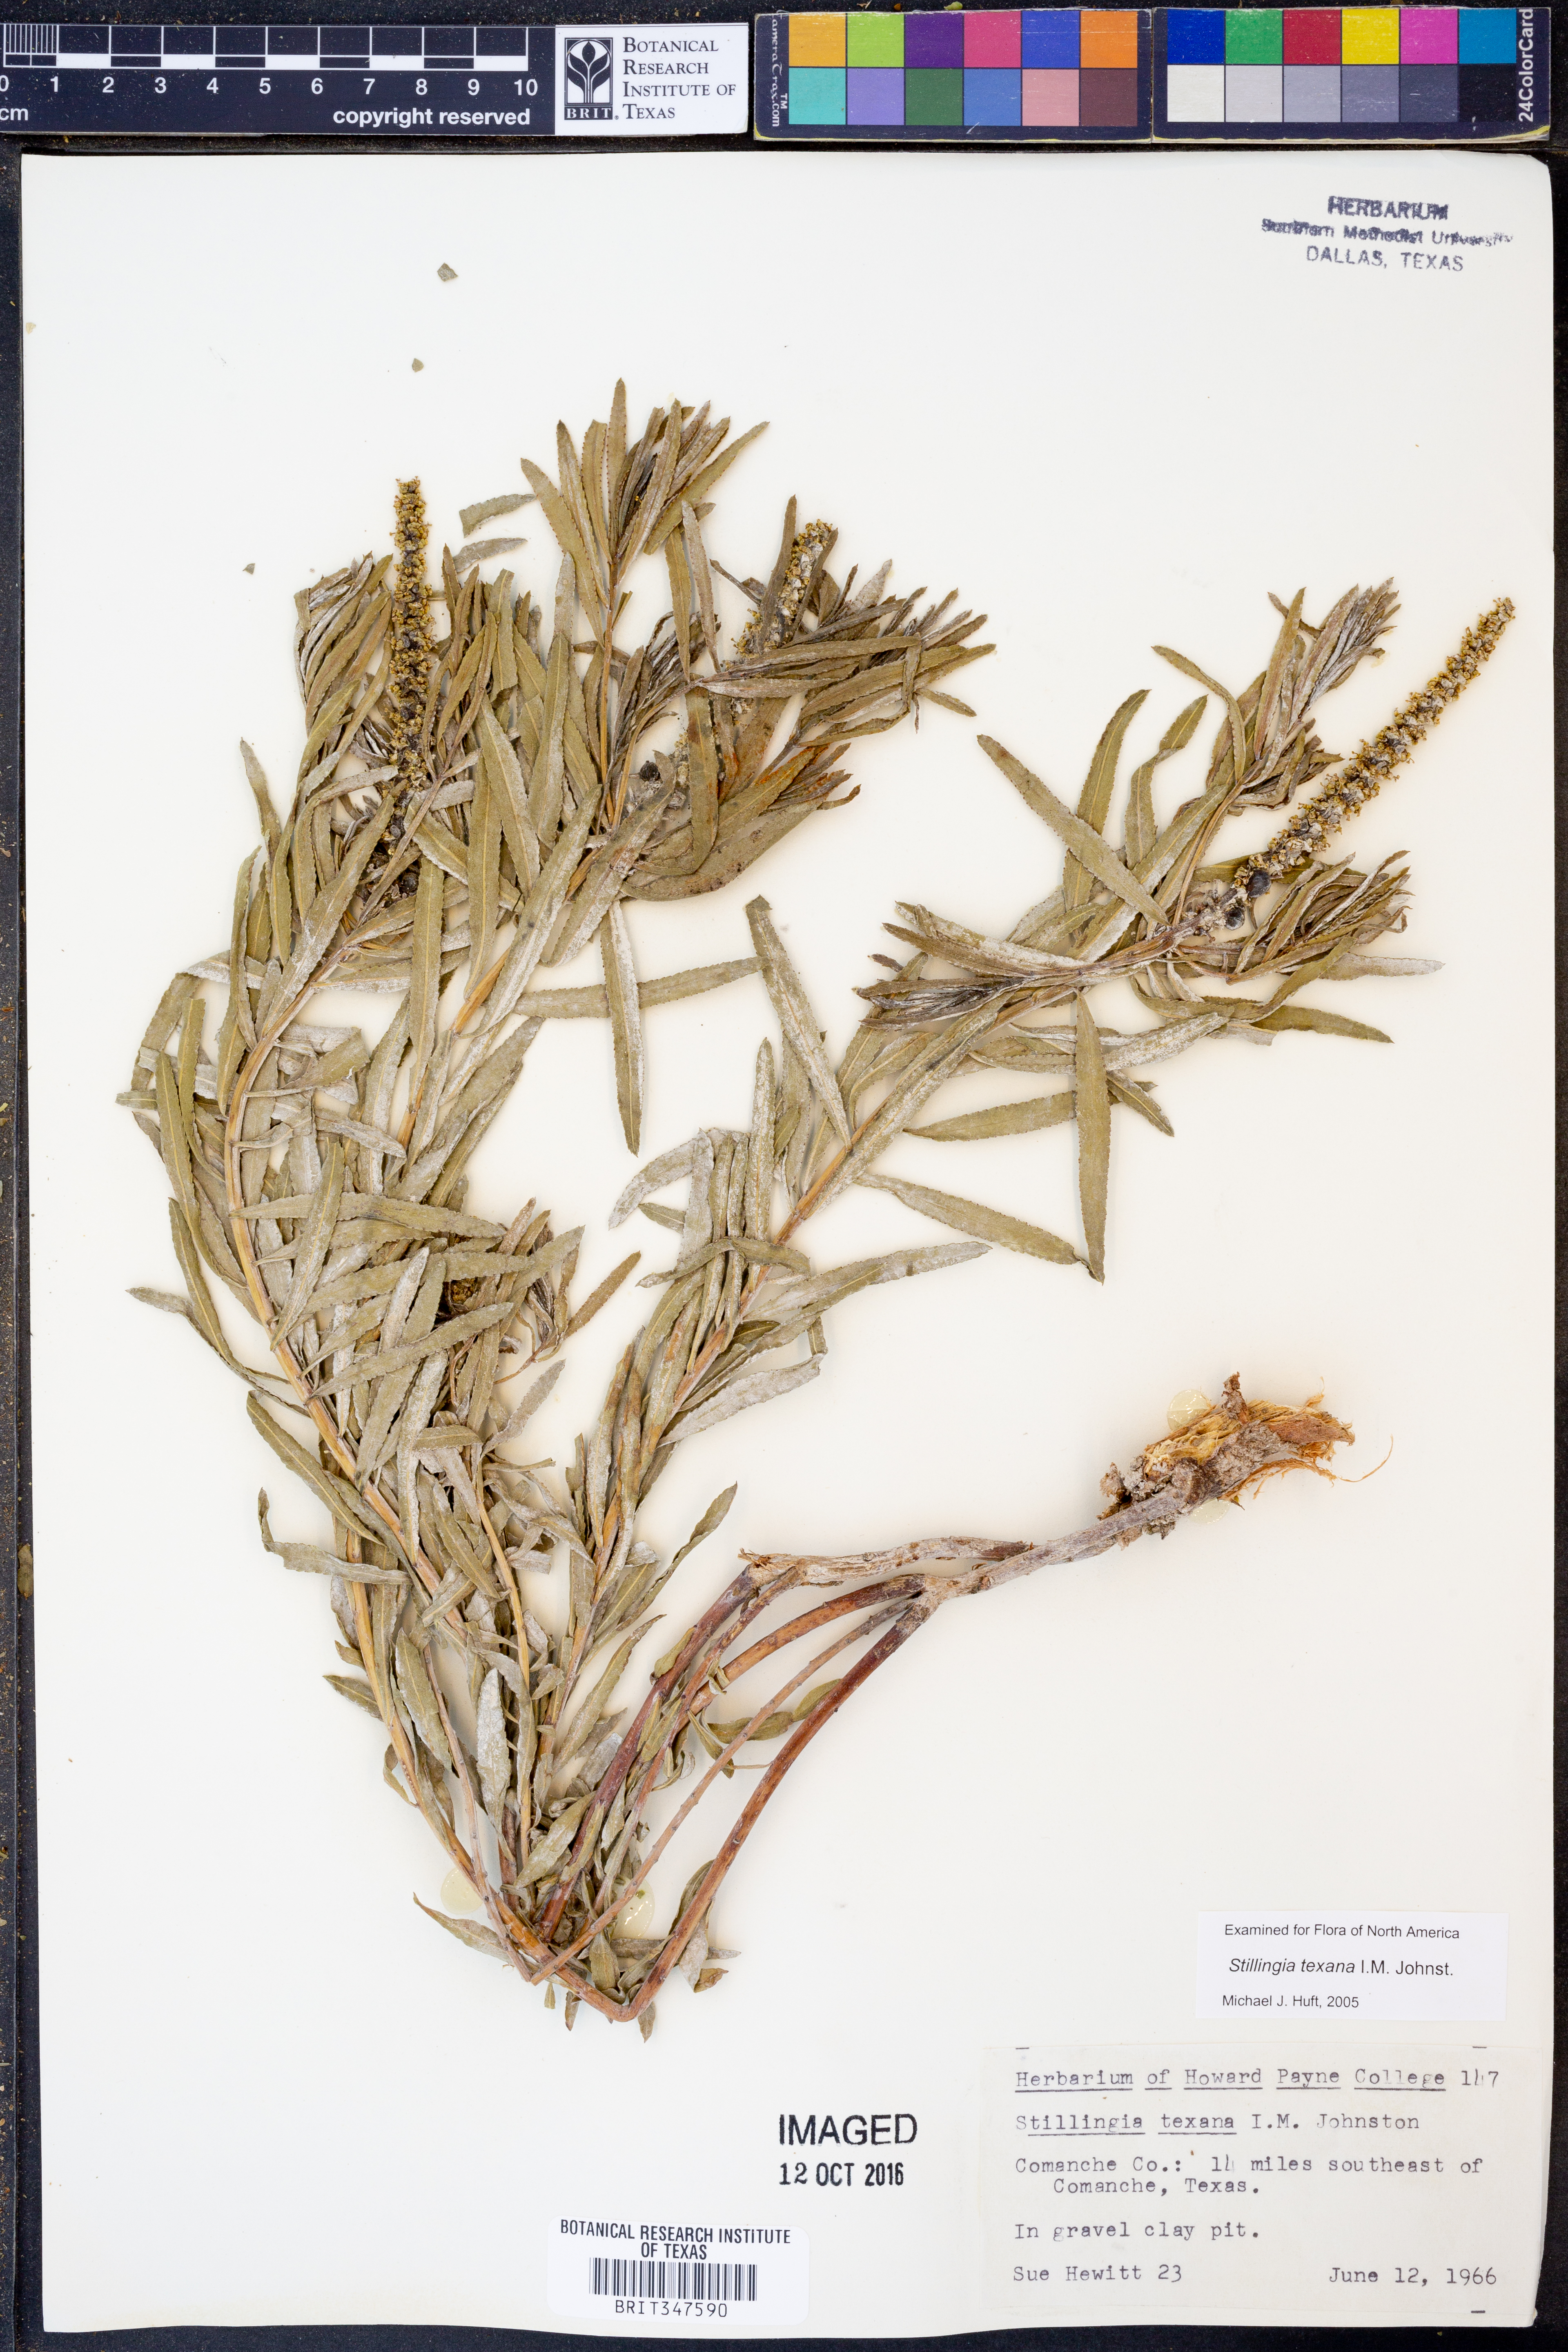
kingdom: Plantae
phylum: Tracheophyta
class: Magnoliopsida
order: Malpighiales
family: Euphorbiaceae
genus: Stillingia
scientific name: Stillingia texana
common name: Texas stillingia
